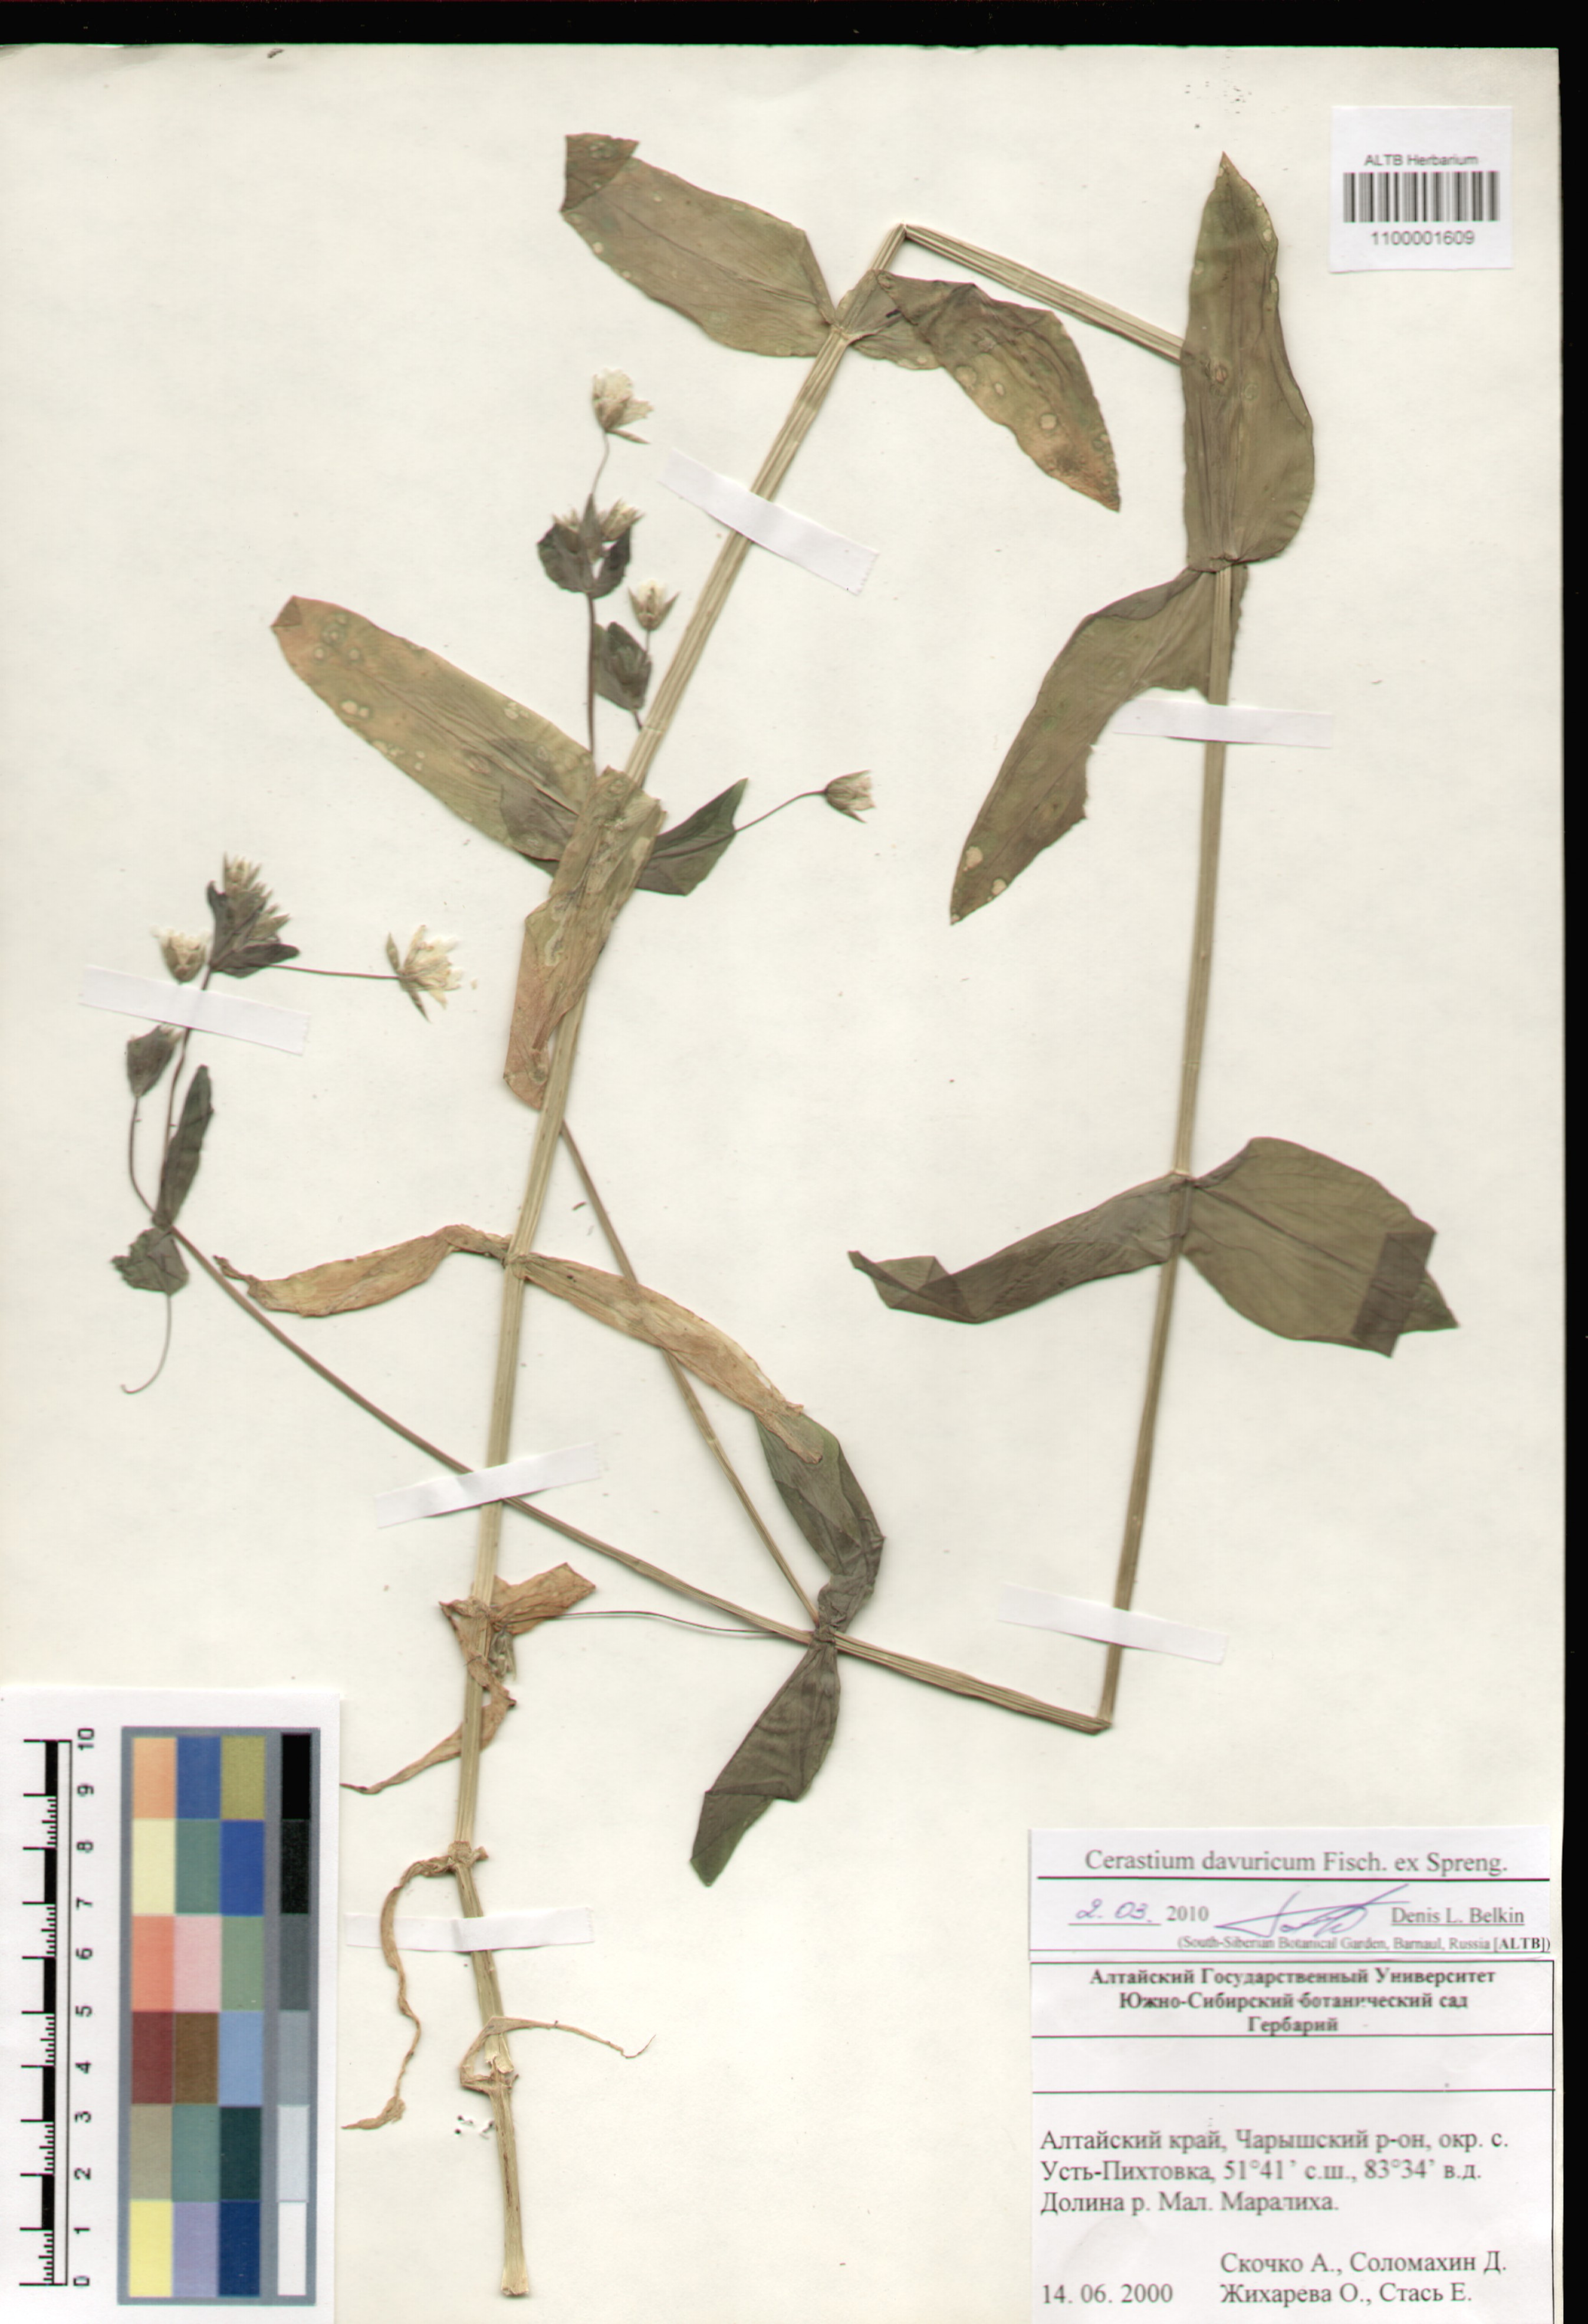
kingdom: Plantae
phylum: Tracheophyta
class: Magnoliopsida
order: Caryophyllales
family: Caryophyllaceae
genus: Dichodon
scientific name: Dichodon davuricum
